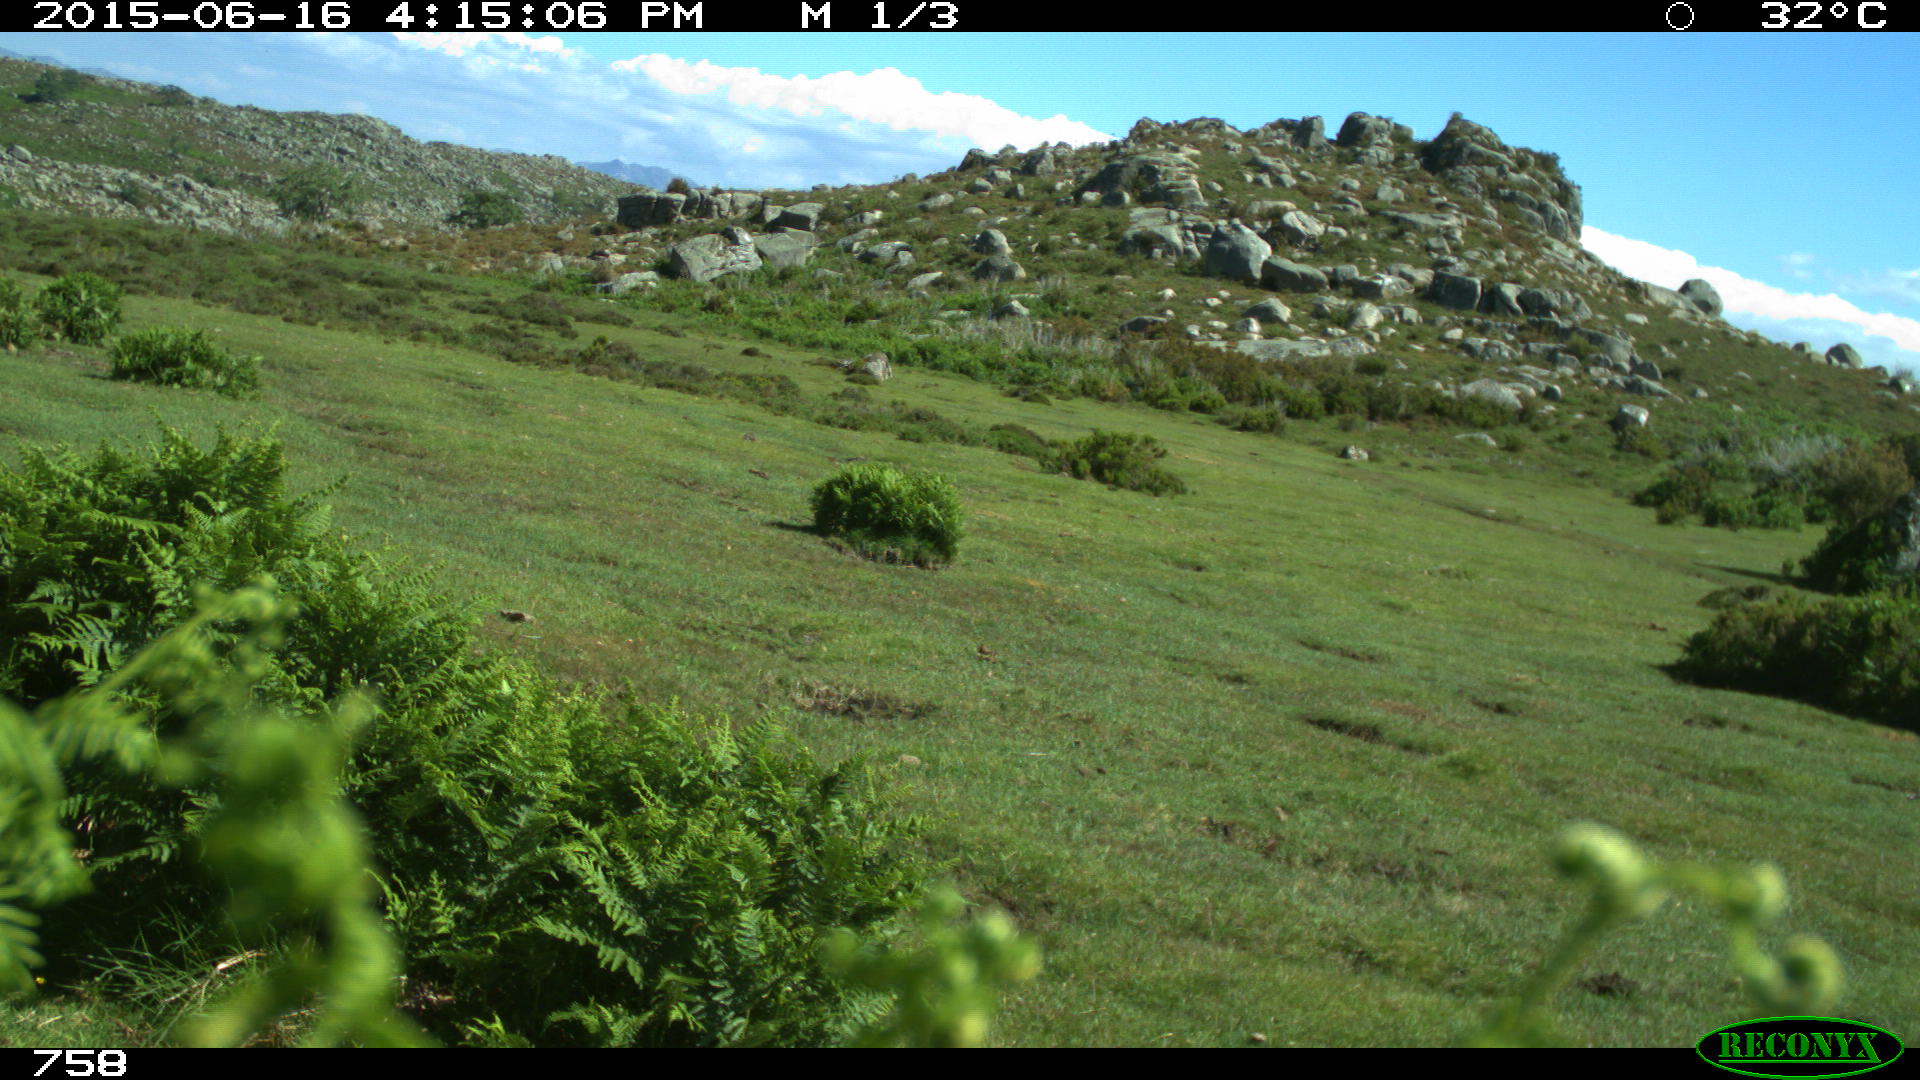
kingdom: Animalia
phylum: Chordata
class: Mammalia
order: Artiodactyla
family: Bovidae
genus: Bos
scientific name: Bos taurus
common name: Domesticated cattle
